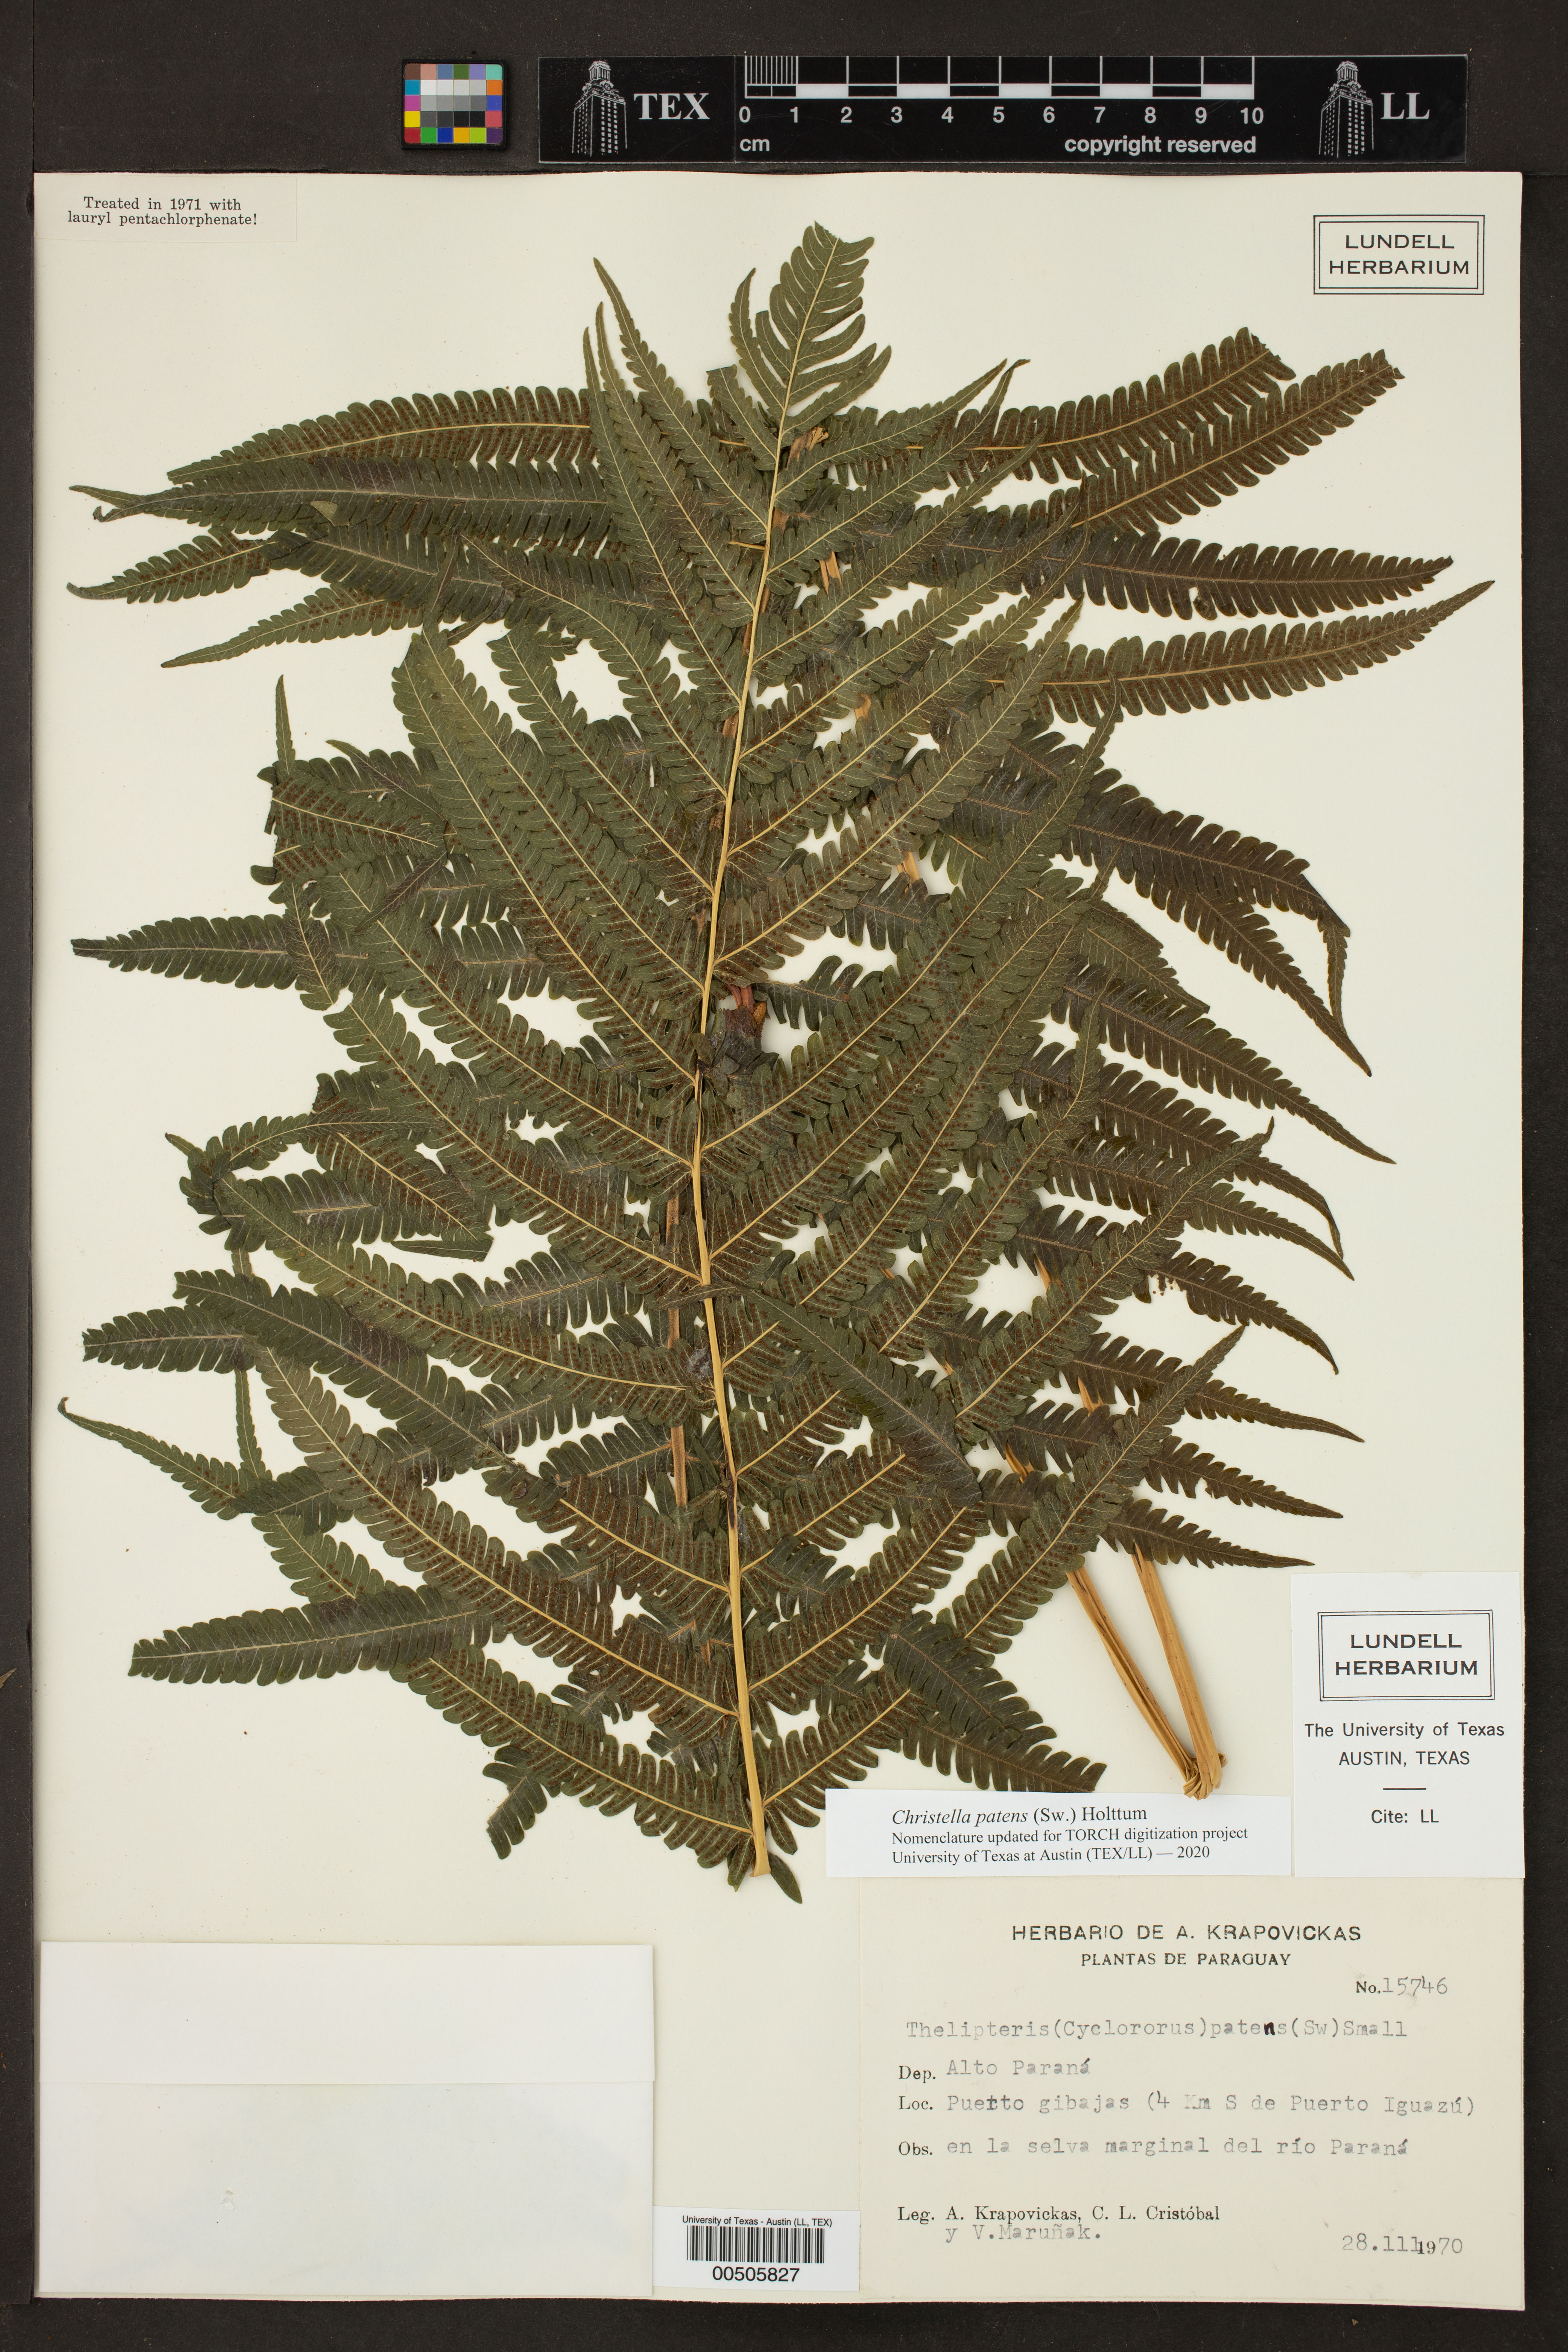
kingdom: Plantae
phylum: Tracheophyta
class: Polypodiopsida
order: Polypodiales
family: Thelypteridaceae
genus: Pelazoneuron
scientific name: Pelazoneuron patens
